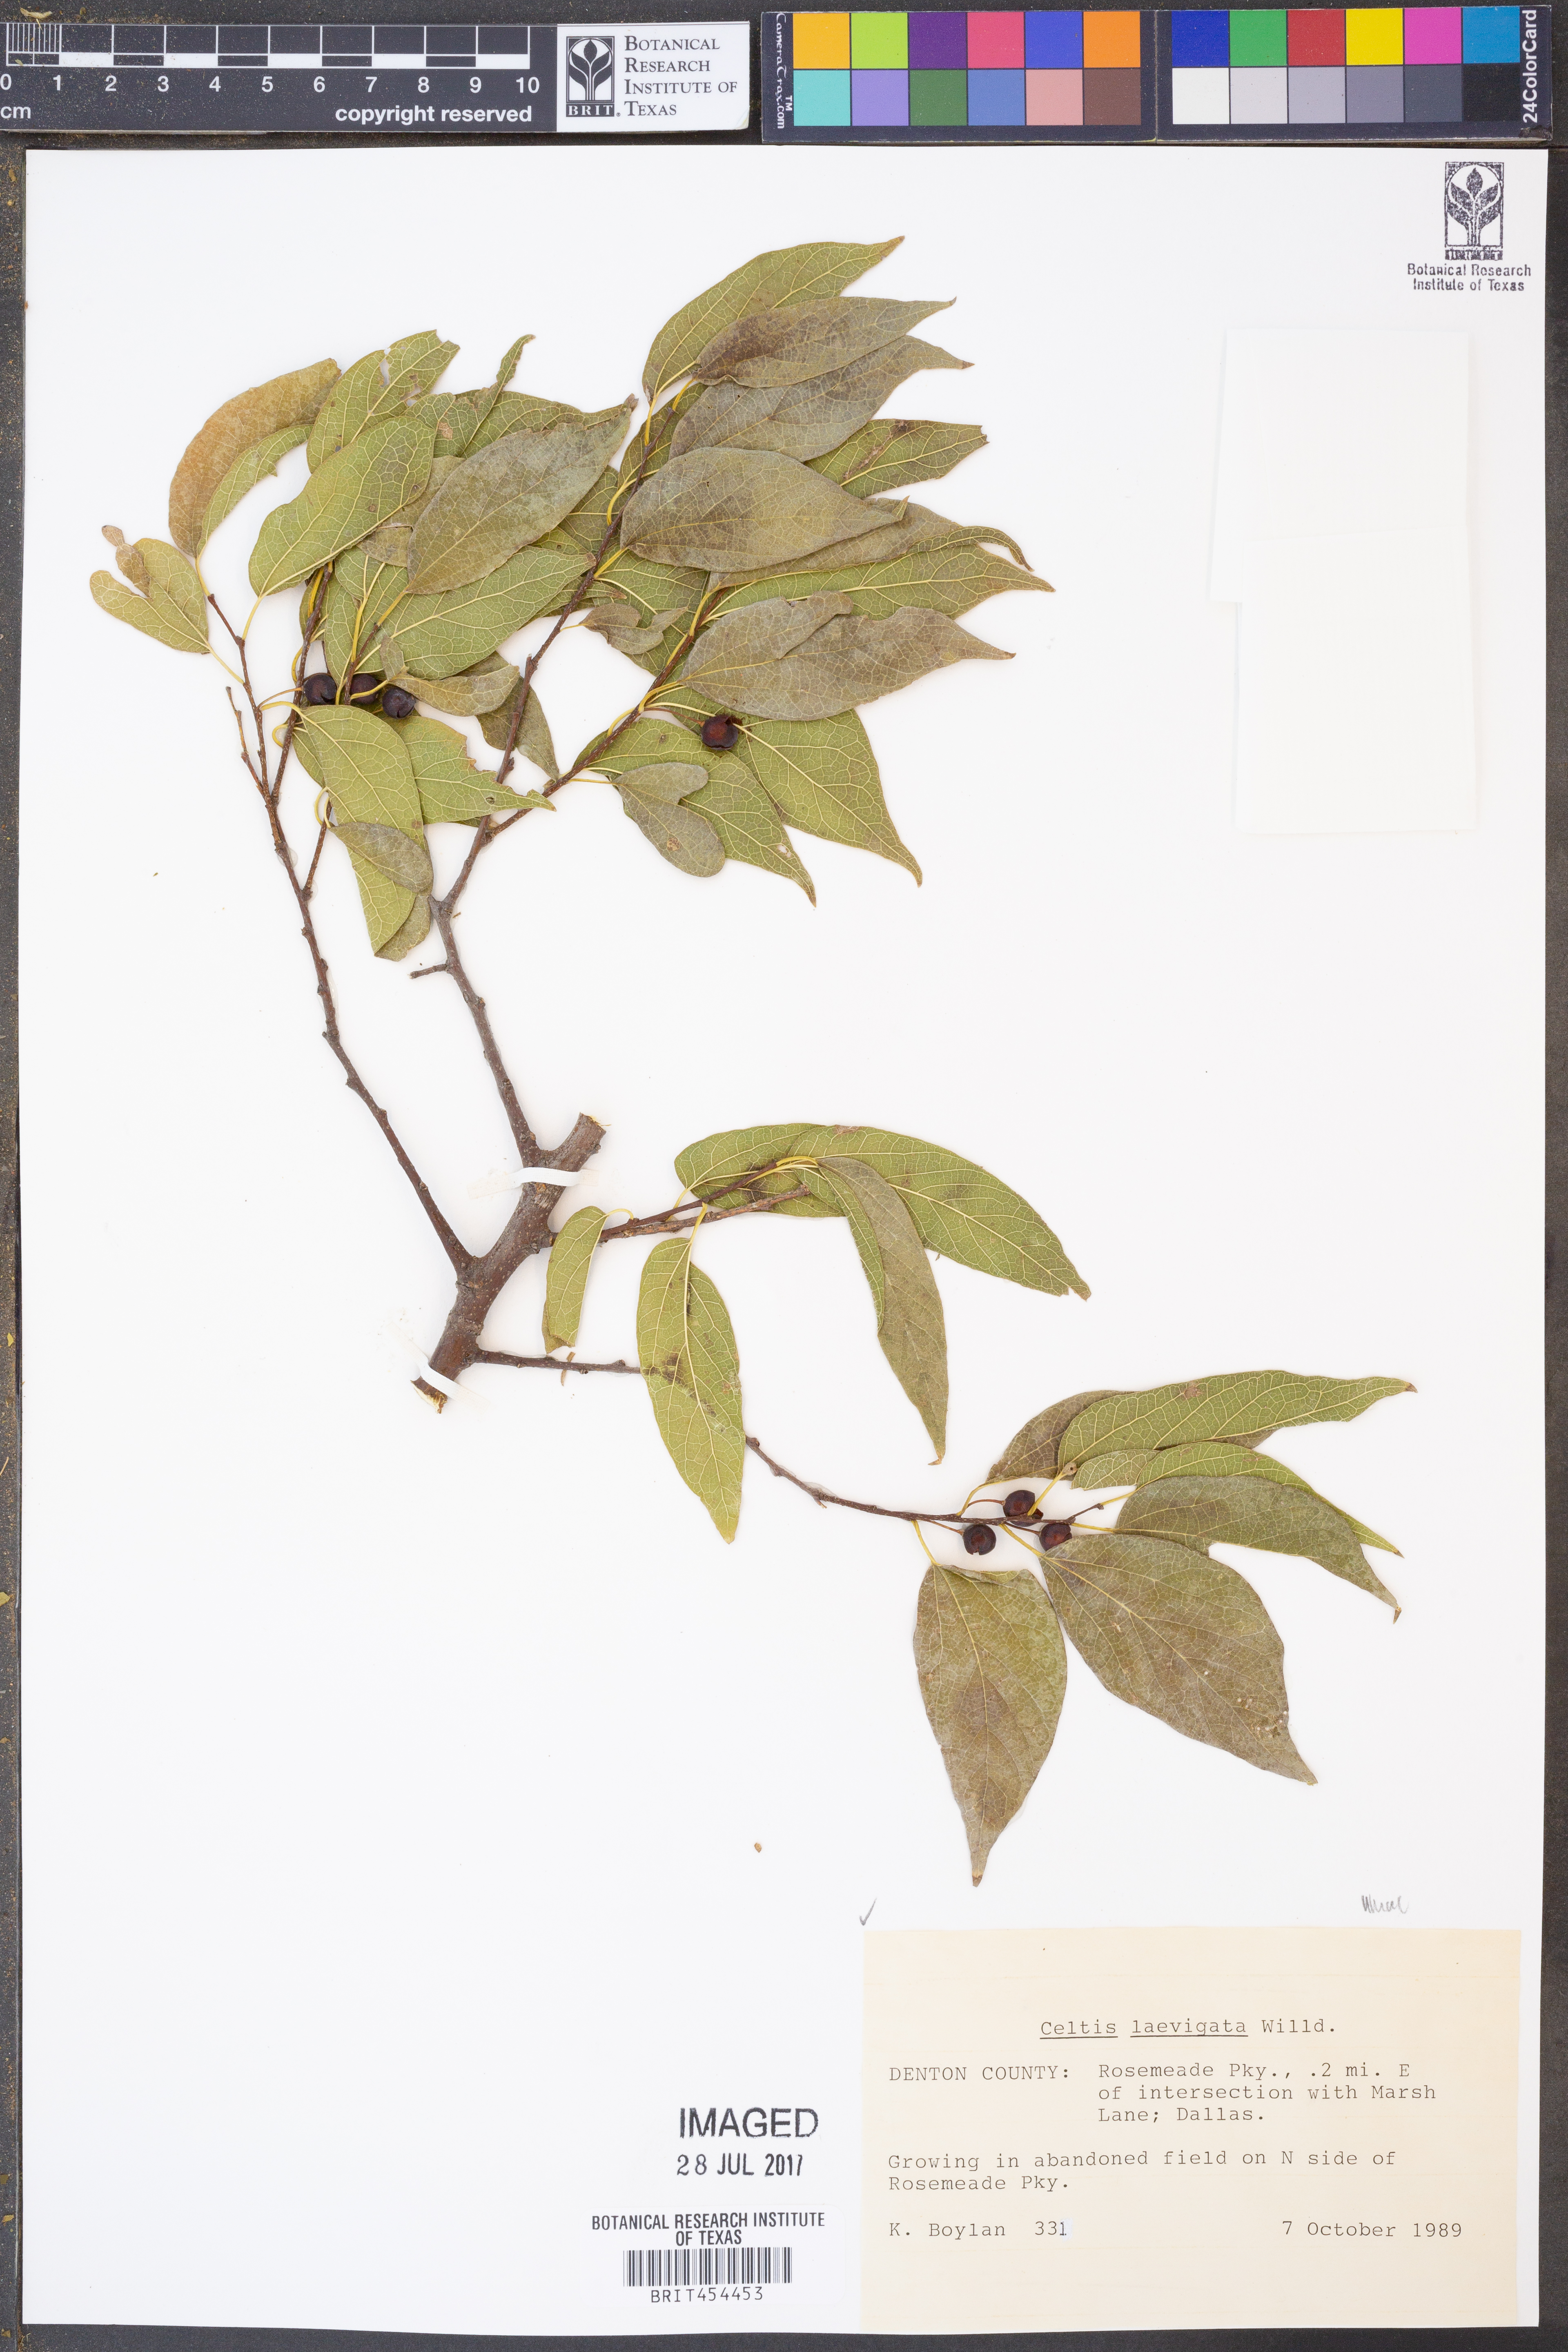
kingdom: Plantae
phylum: Tracheophyta
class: Magnoliopsida
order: Rosales
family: Cannabaceae
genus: Celtis
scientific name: Celtis laevigata
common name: Sugarberry
